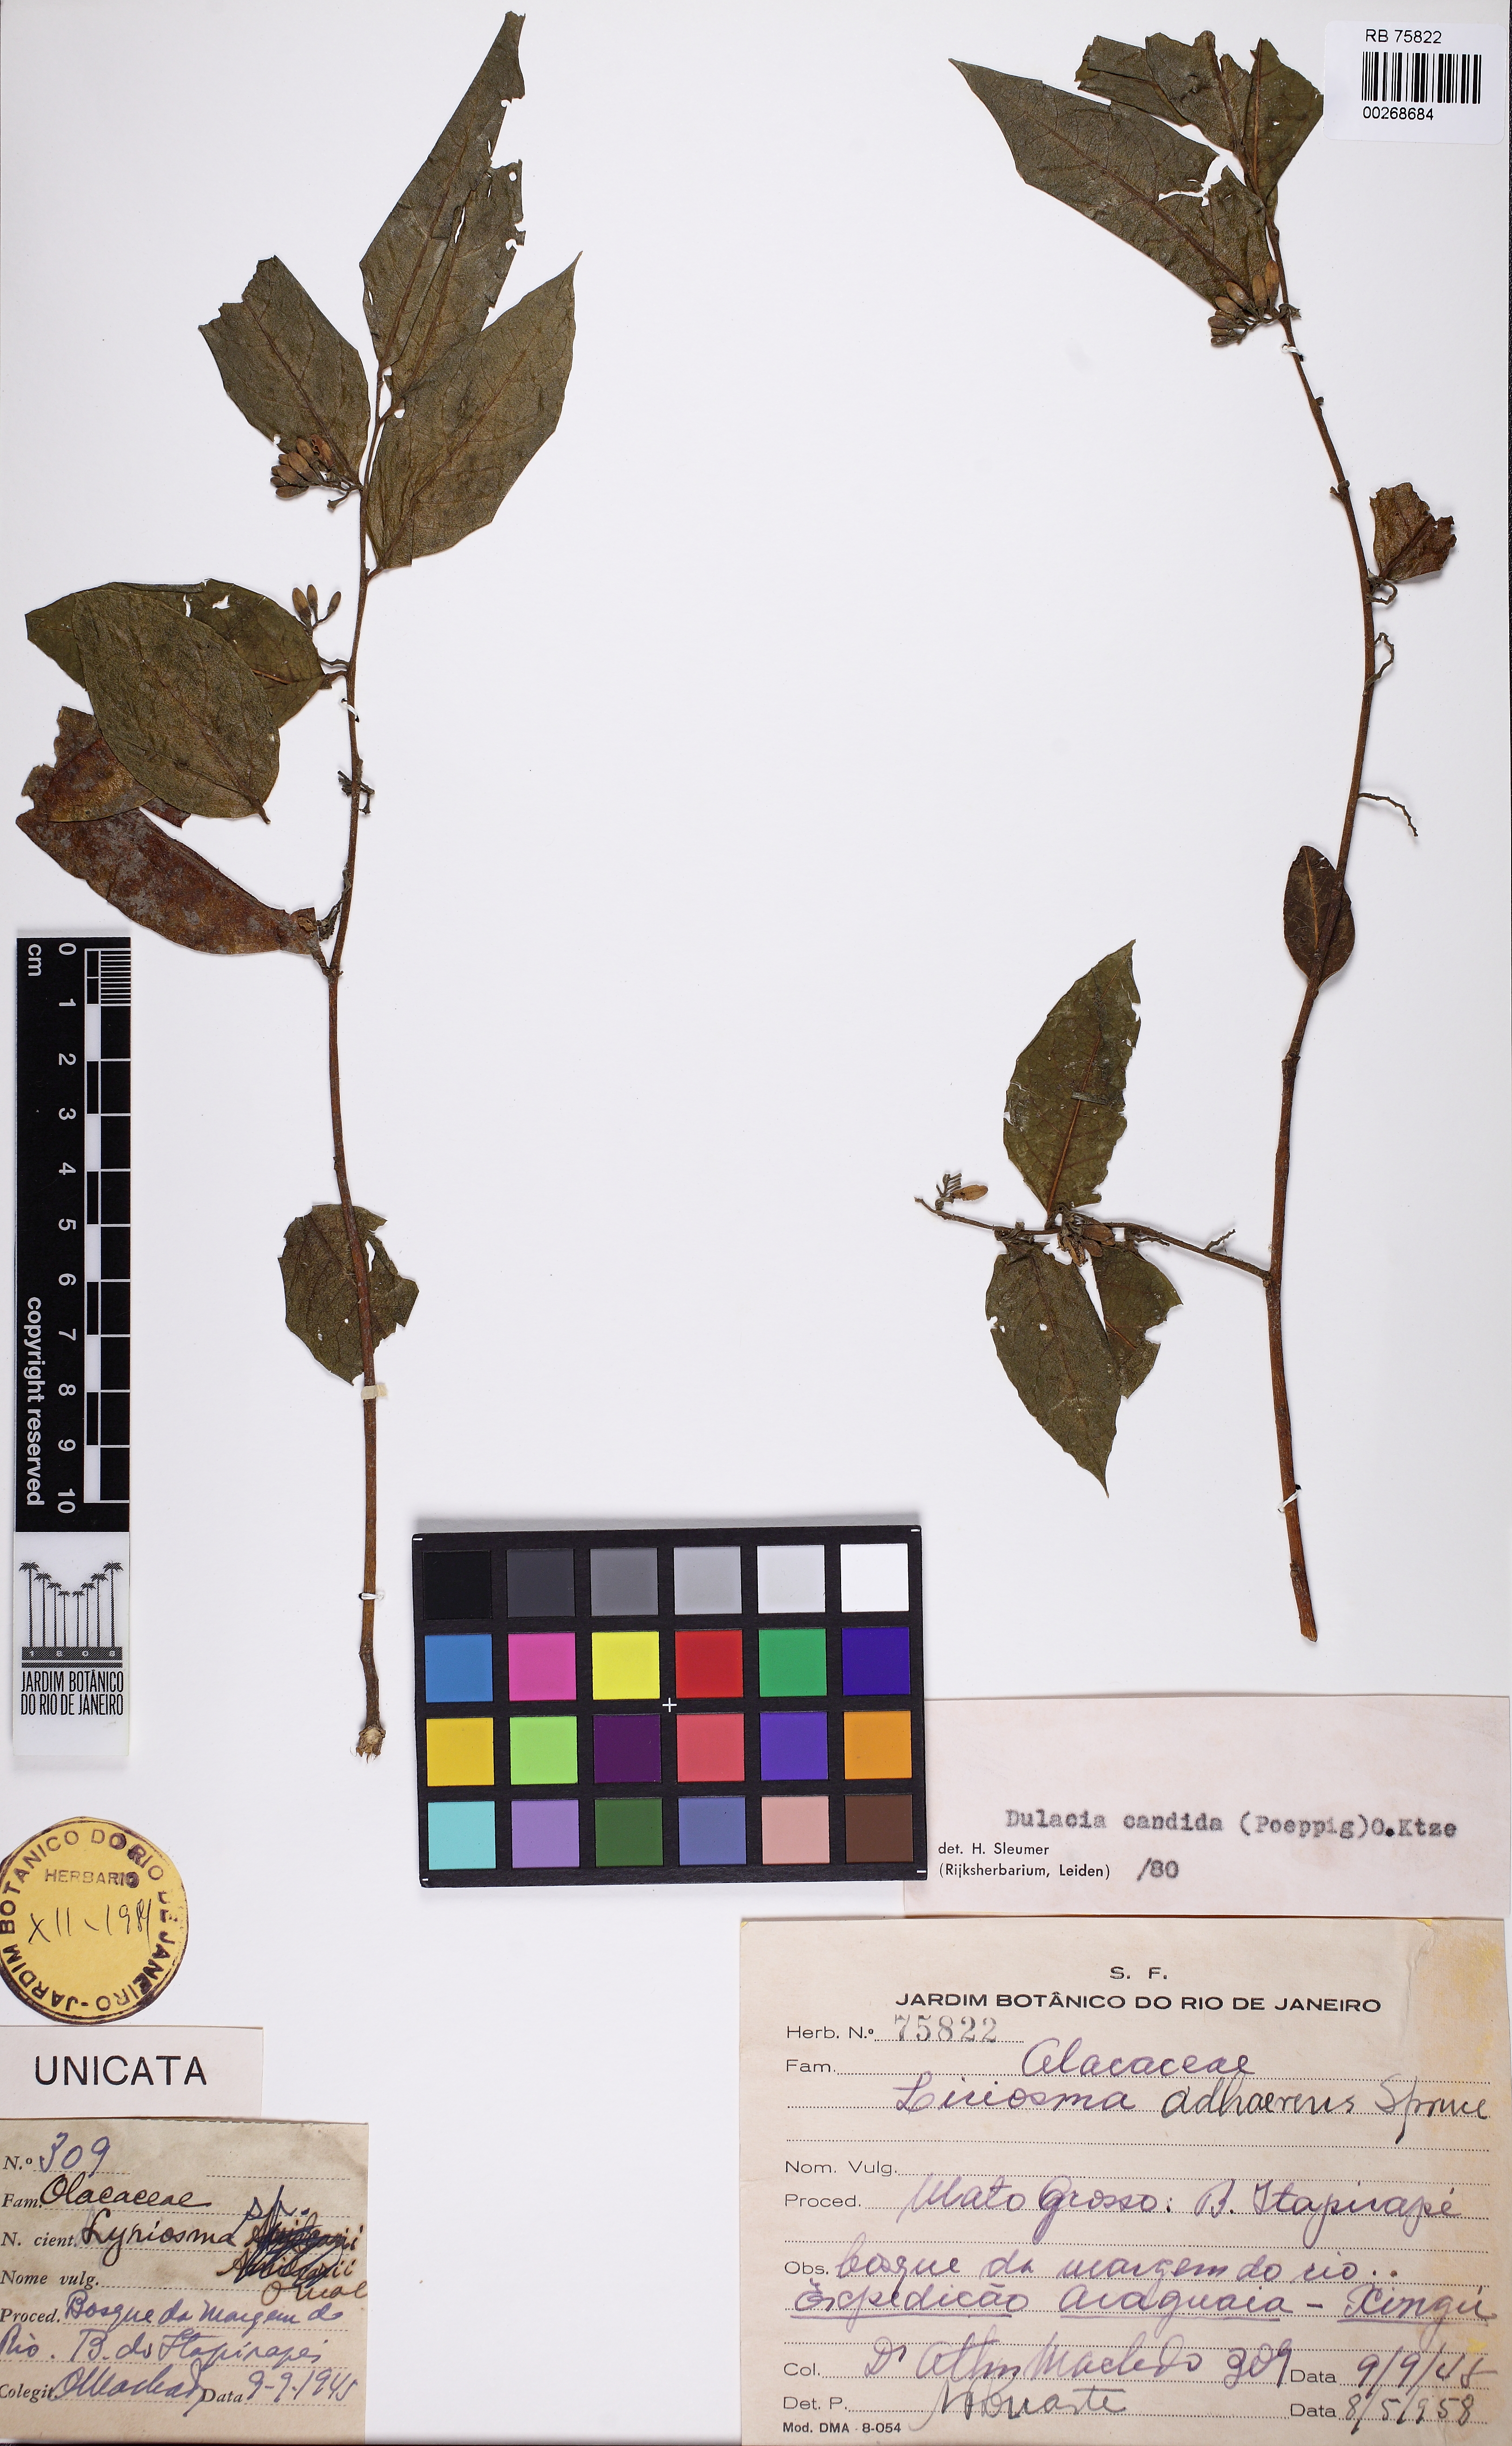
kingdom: Plantae
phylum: Tracheophyta
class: Magnoliopsida
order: Santalales
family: Olacaceae
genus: Dulacia
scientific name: Dulacia candida
